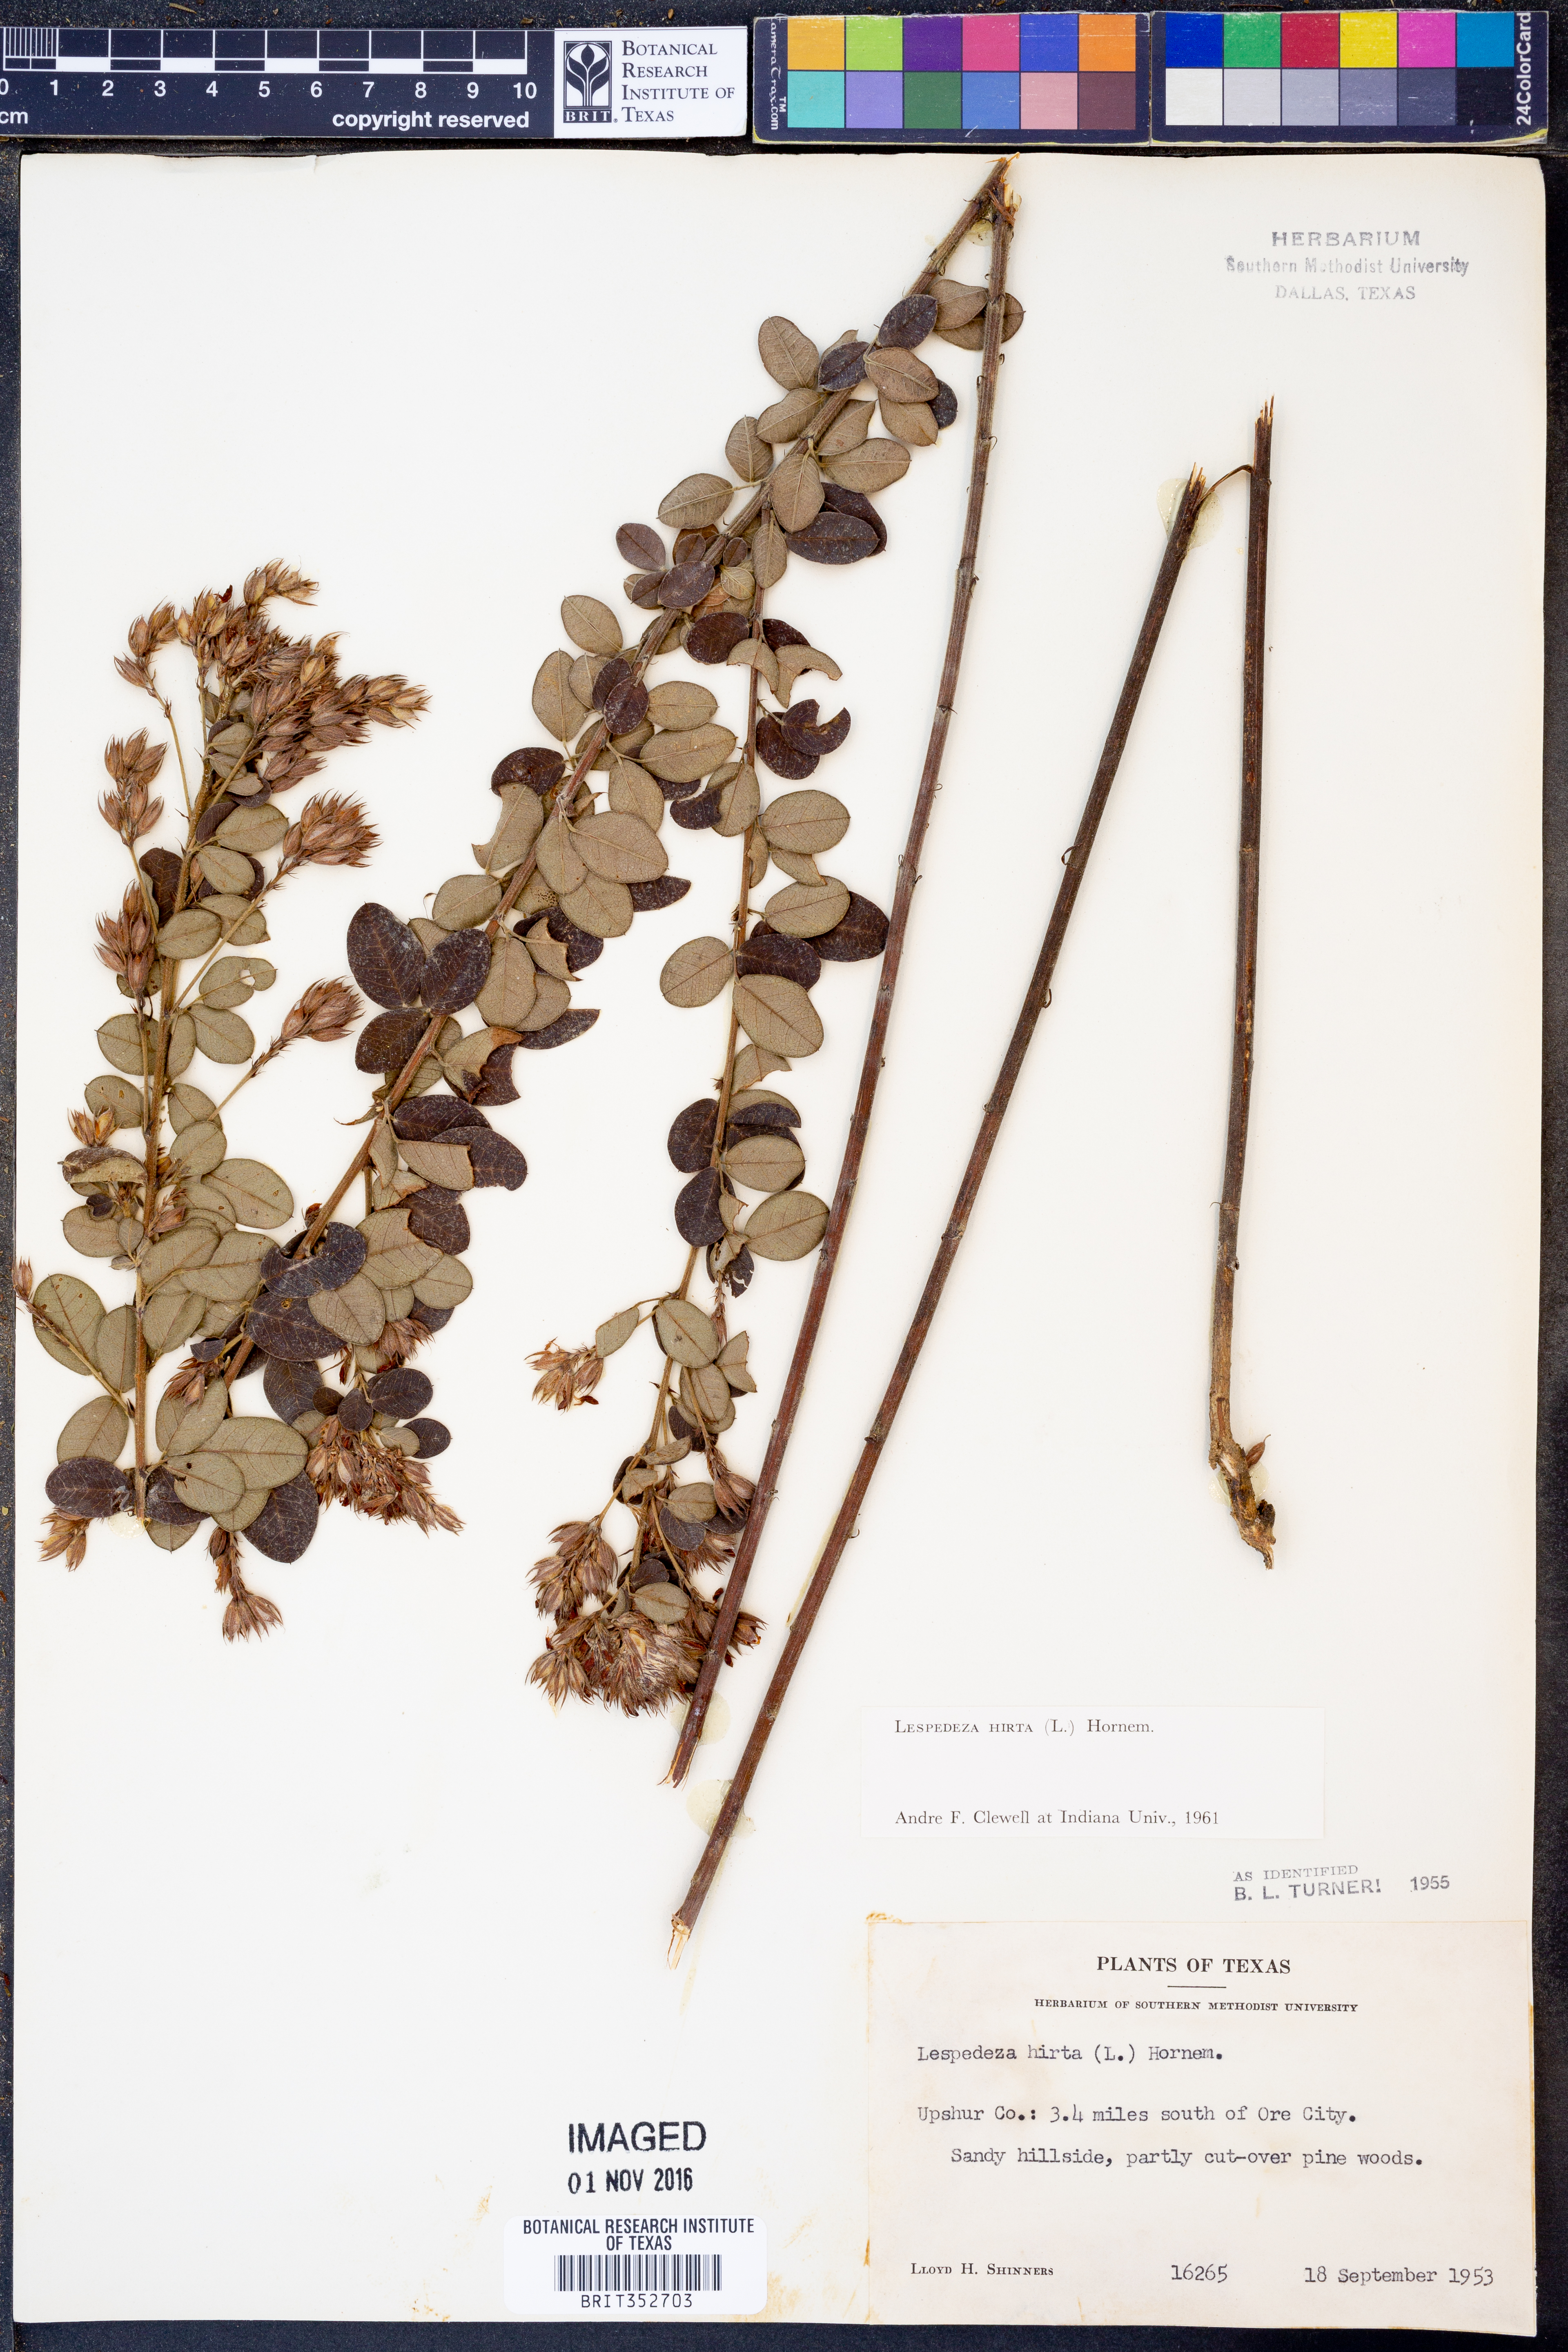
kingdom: Plantae
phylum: Tracheophyta
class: Magnoliopsida
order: Fabales
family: Fabaceae
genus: Lespedeza
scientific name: Lespedeza hirta
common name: Hairy lespedeza
